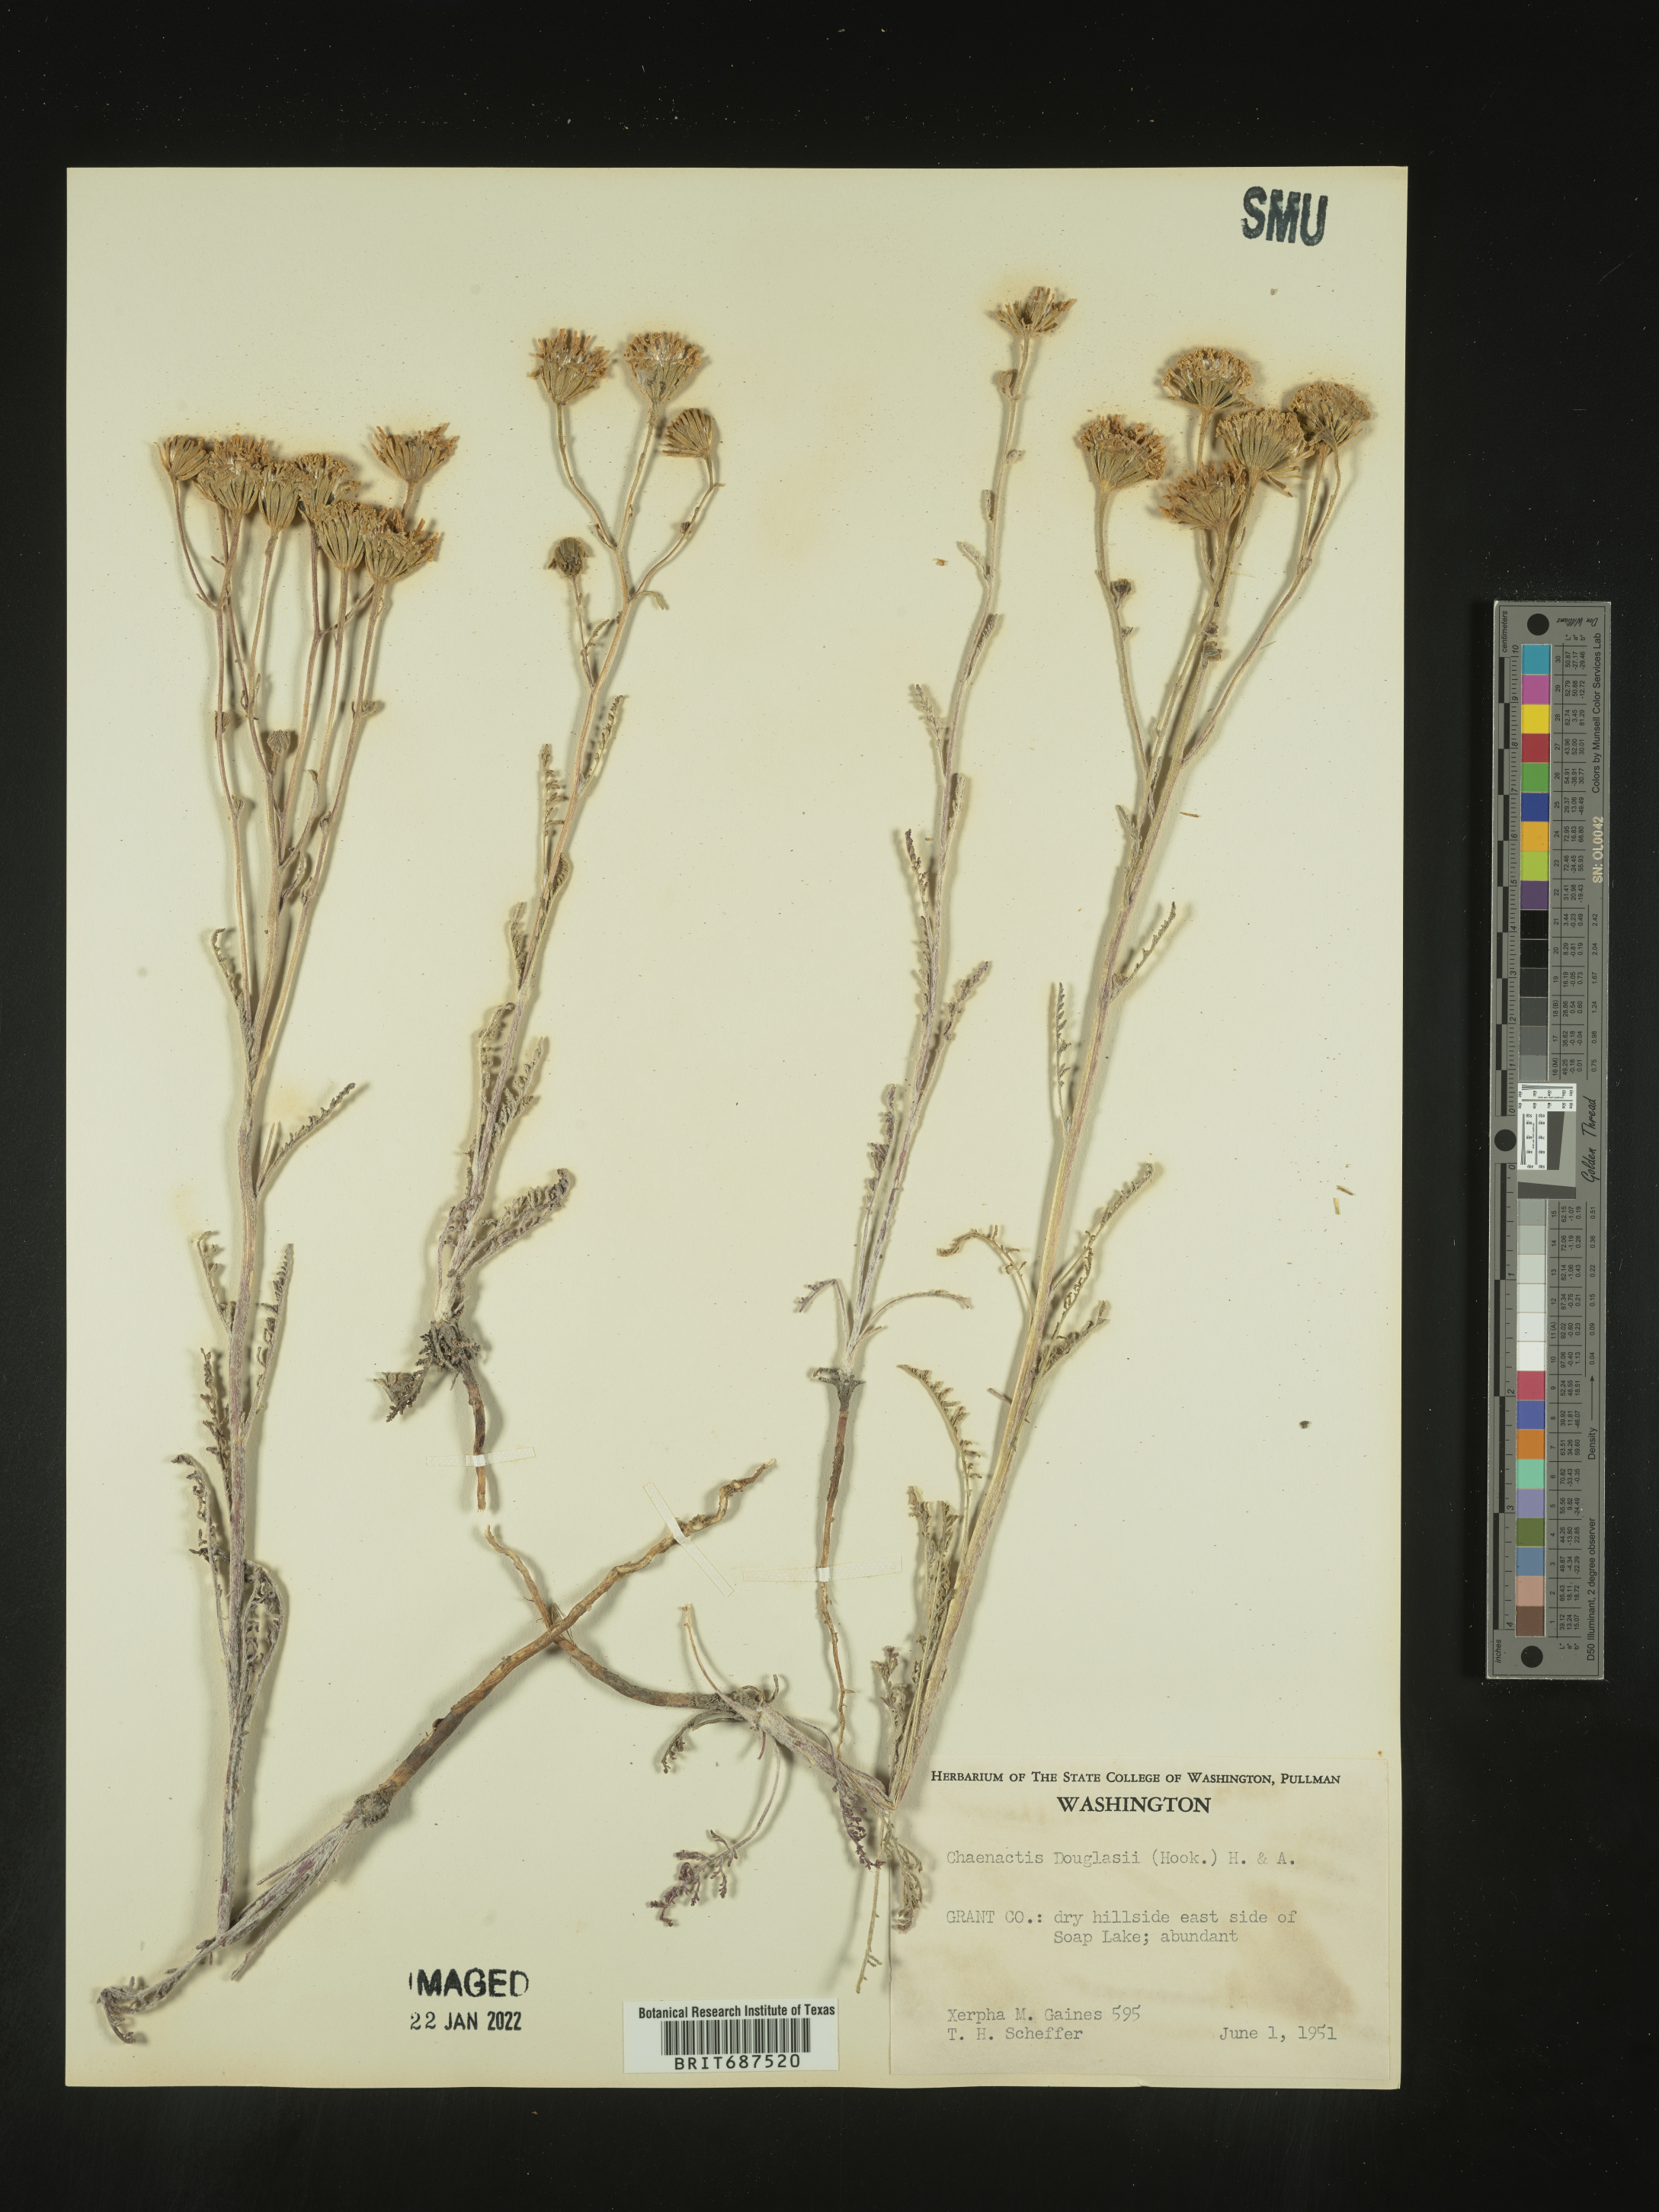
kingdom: Plantae
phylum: Tracheophyta
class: Magnoliopsida
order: Asterales
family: Asteraceae
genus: Chaenactis
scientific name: Chaenactis douglasii
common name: Hoary pincushion
